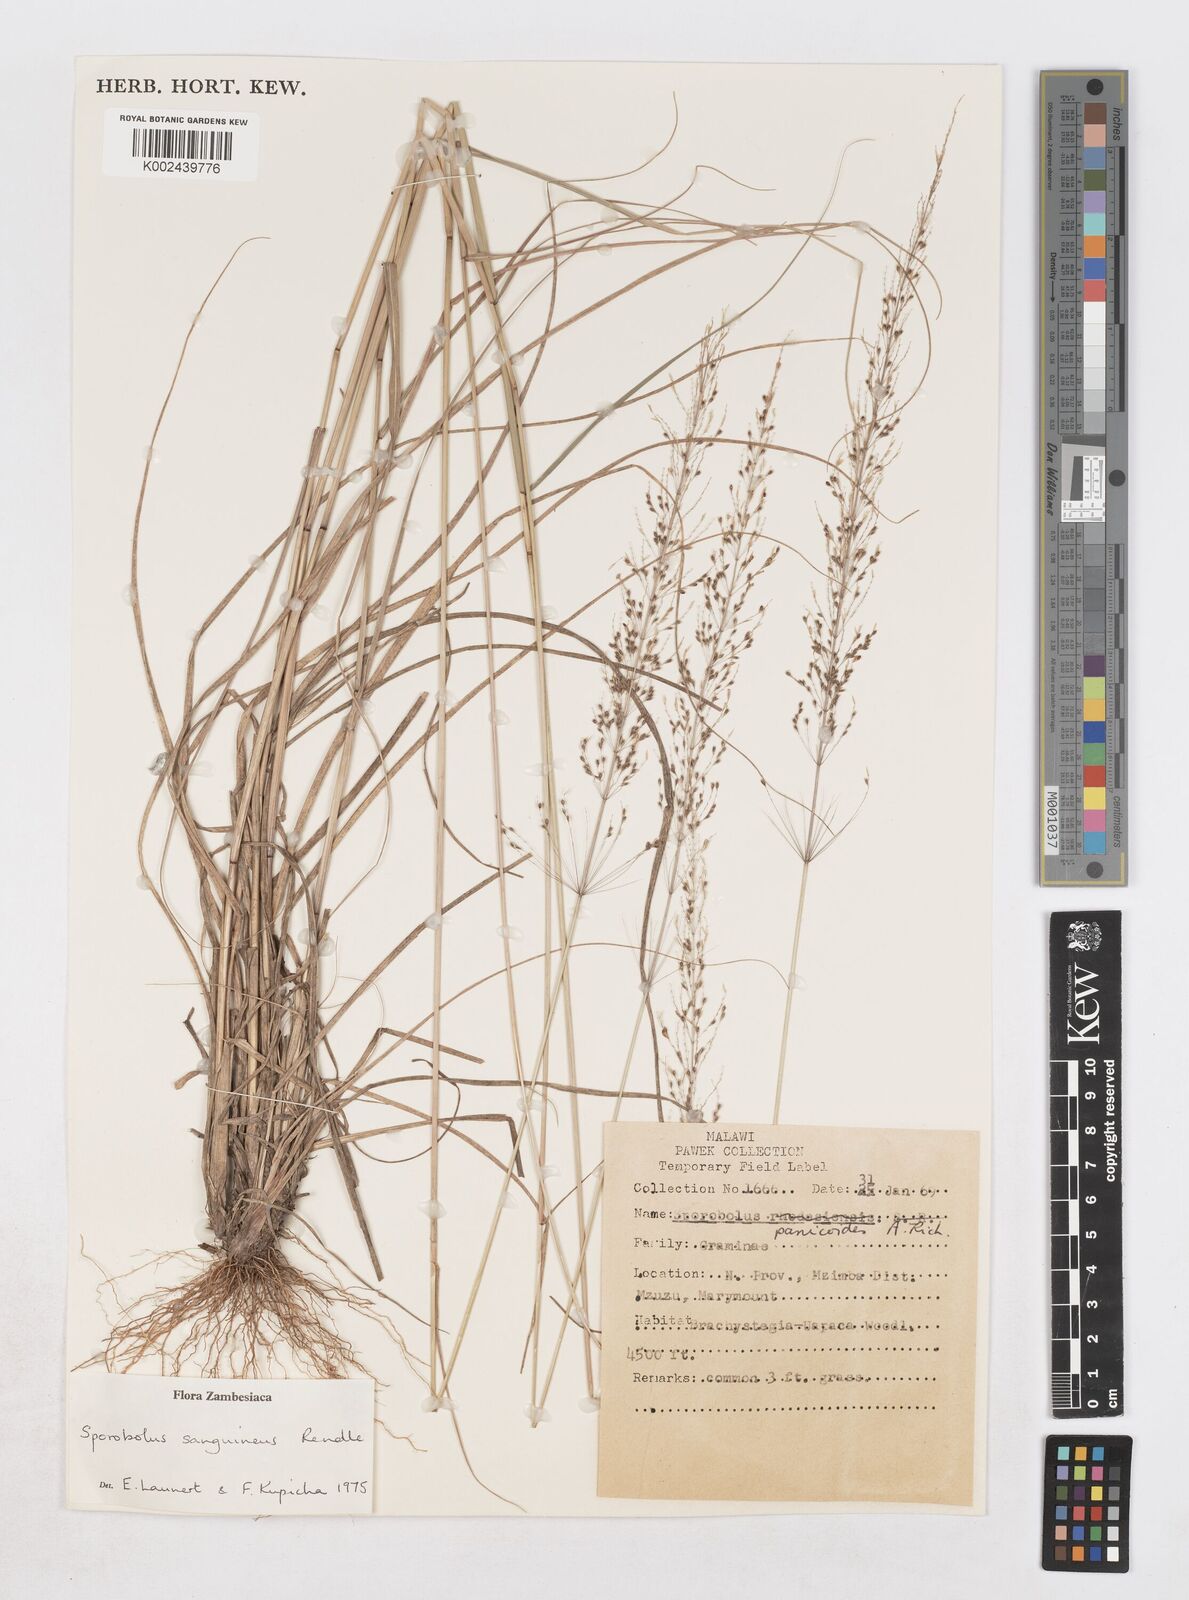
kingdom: Plantae
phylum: Tracheophyta
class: Liliopsida
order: Poales
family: Poaceae
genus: Sporobolus
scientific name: Sporobolus sanguineus
